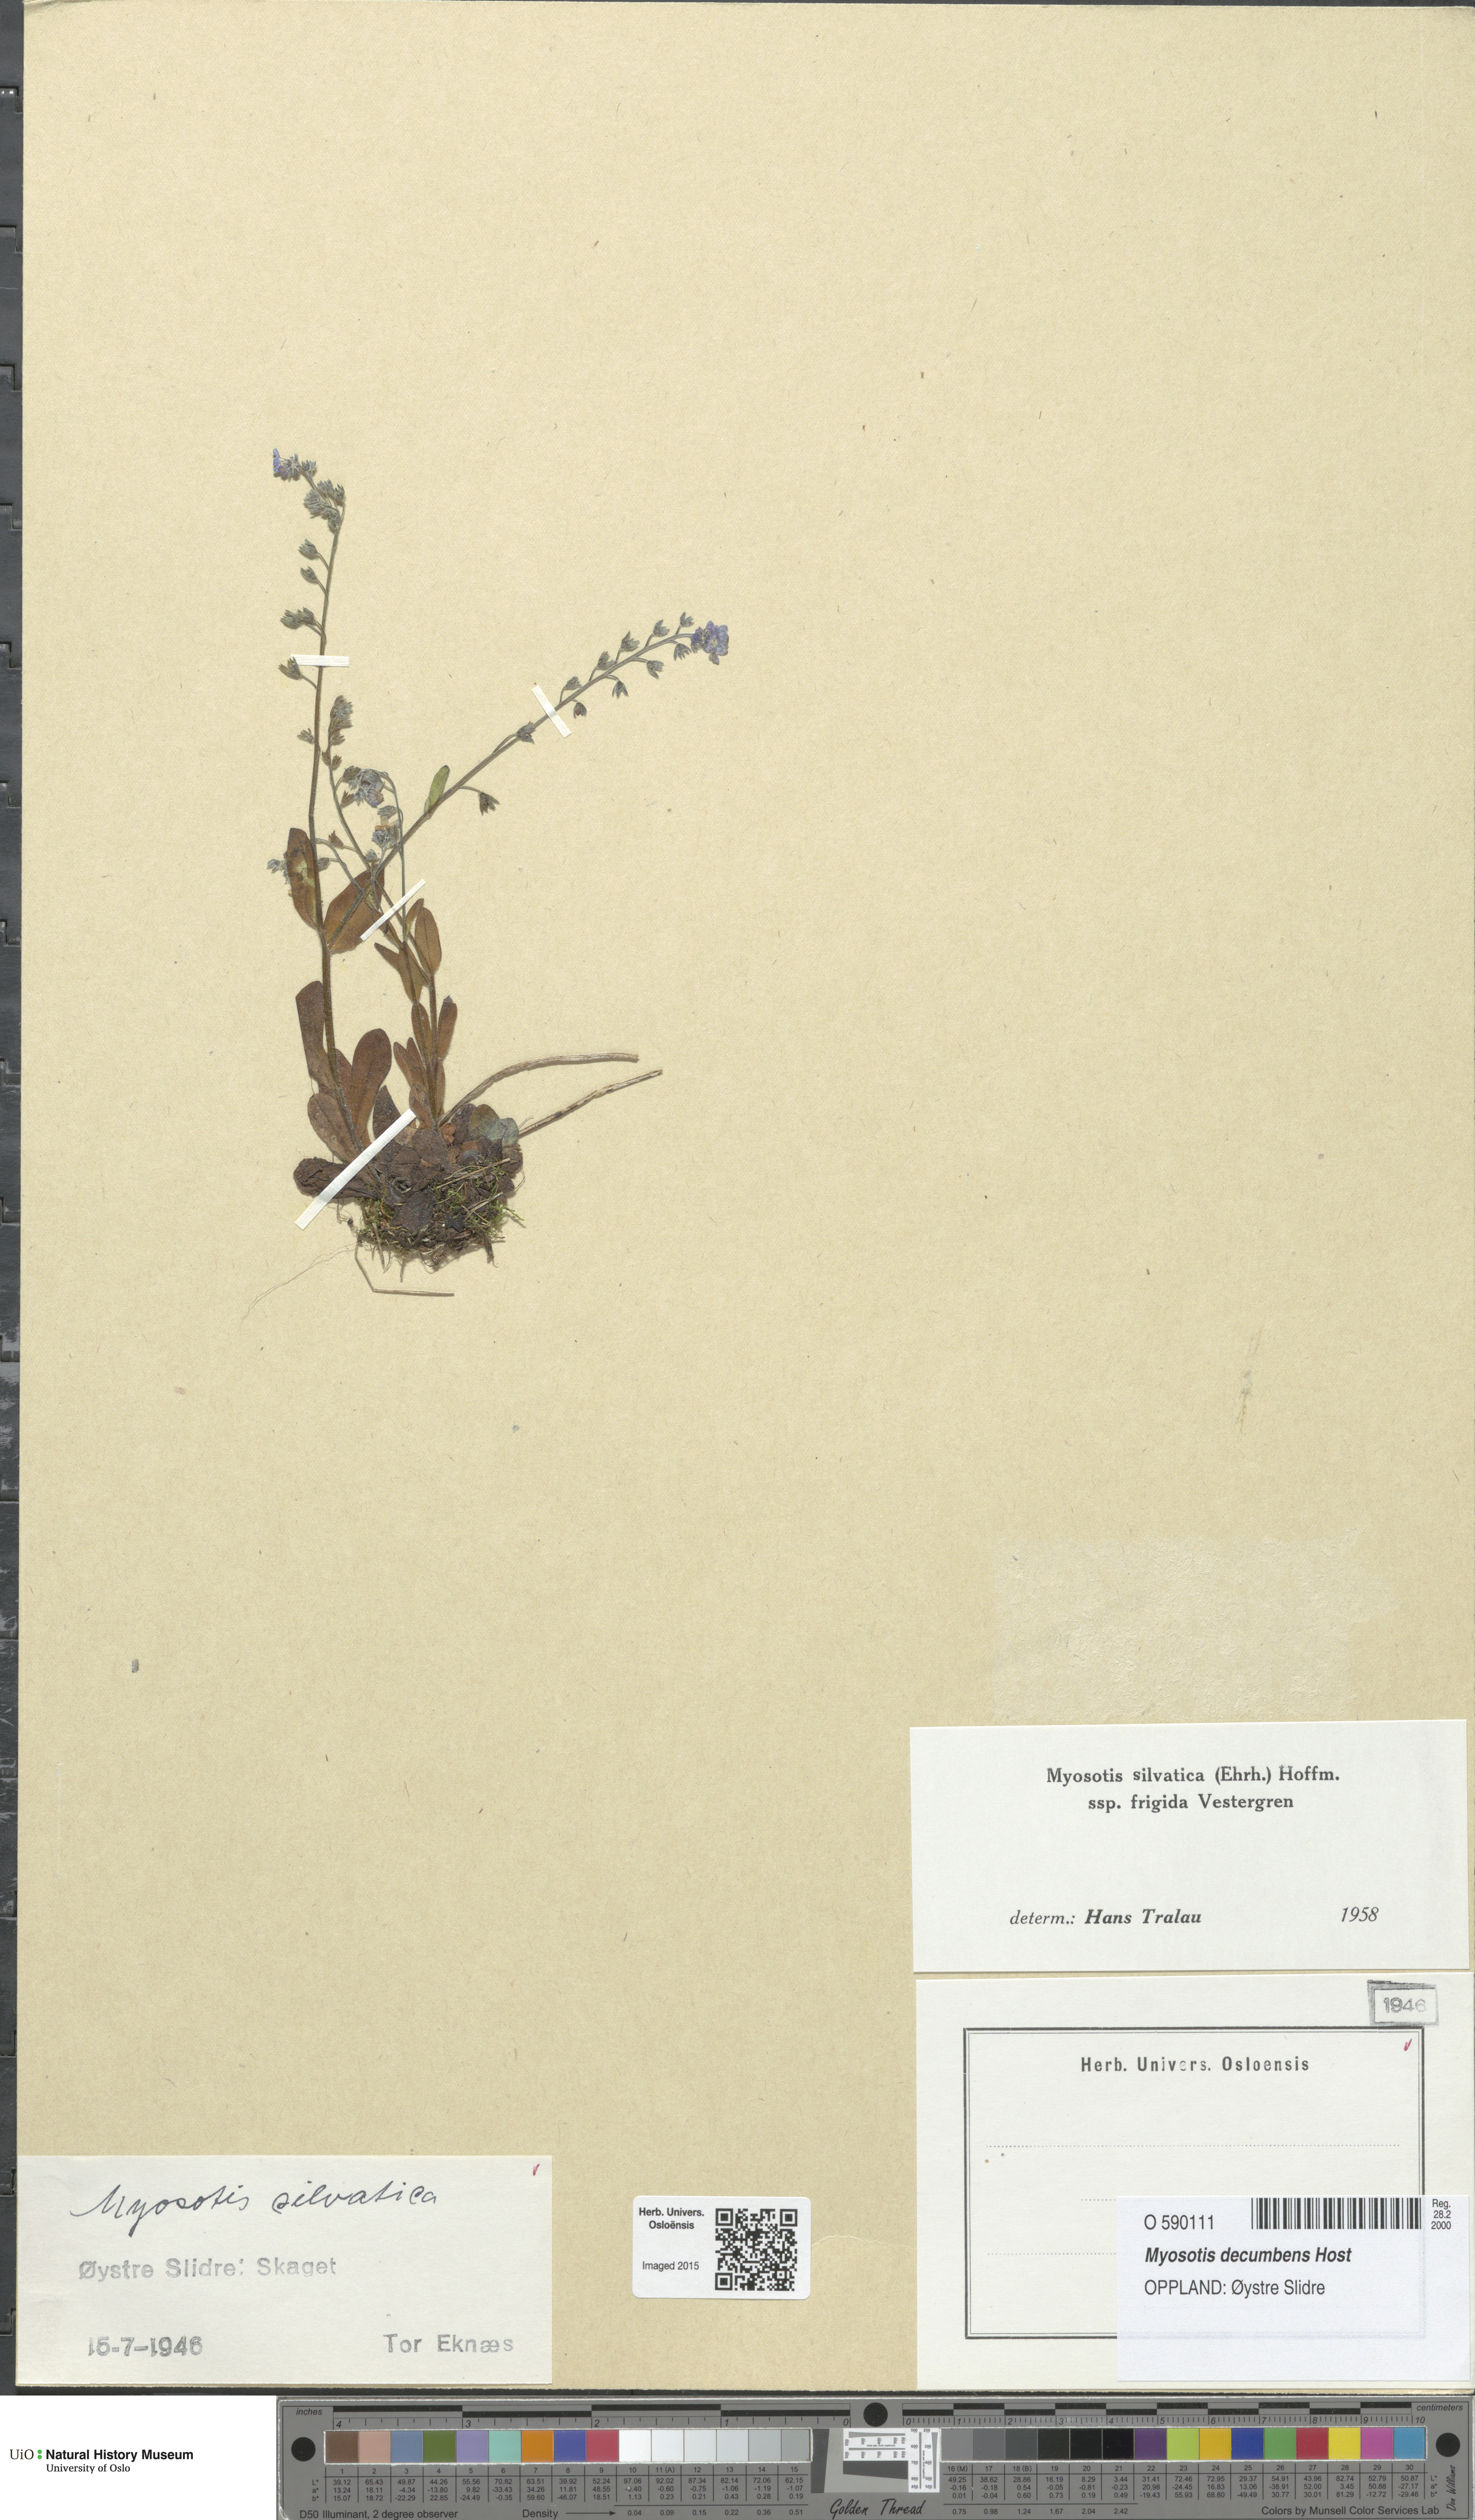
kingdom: Plantae
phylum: Tracheophyta
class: Magnoliopsida
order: Boraginales
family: Boraginaceae
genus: Myosotis
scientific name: Myosotis decumbens
